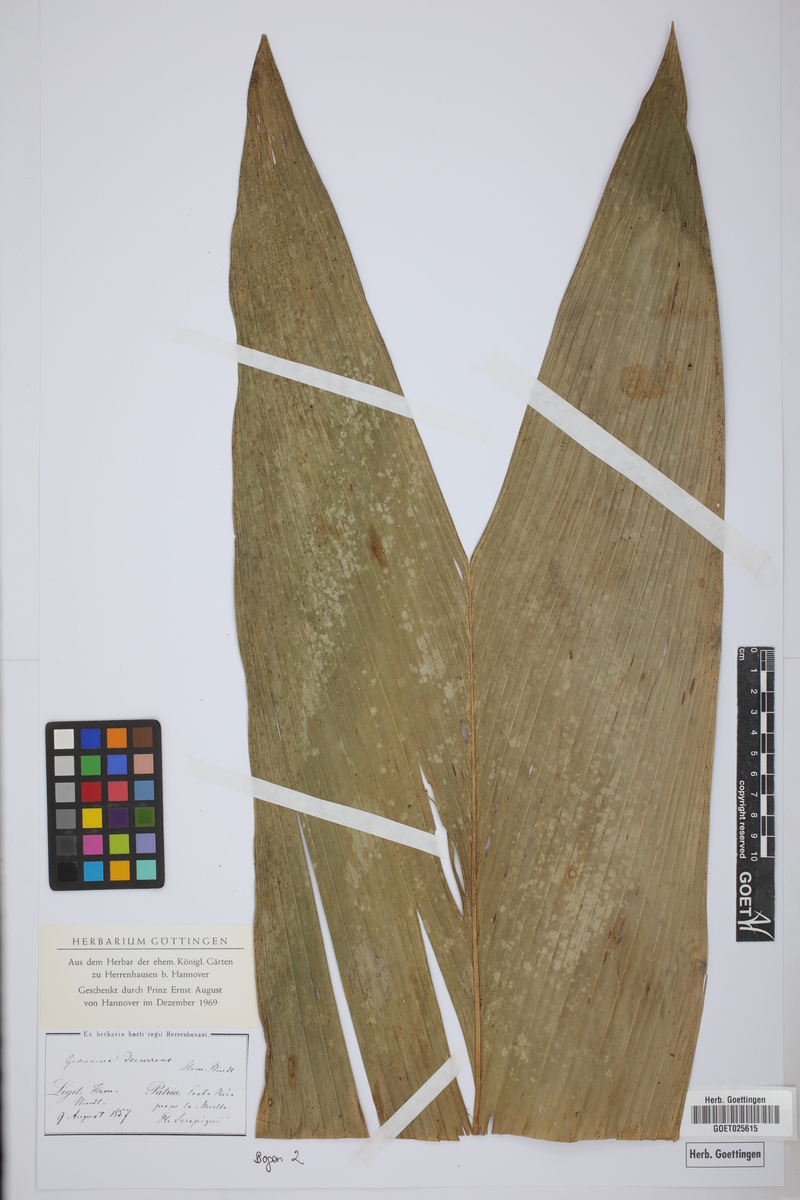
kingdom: Plantae
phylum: Tracheophyta
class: Liliopsida
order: Arecales
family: Arecaceae
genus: Geonoma
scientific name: Geonoma cuneata
